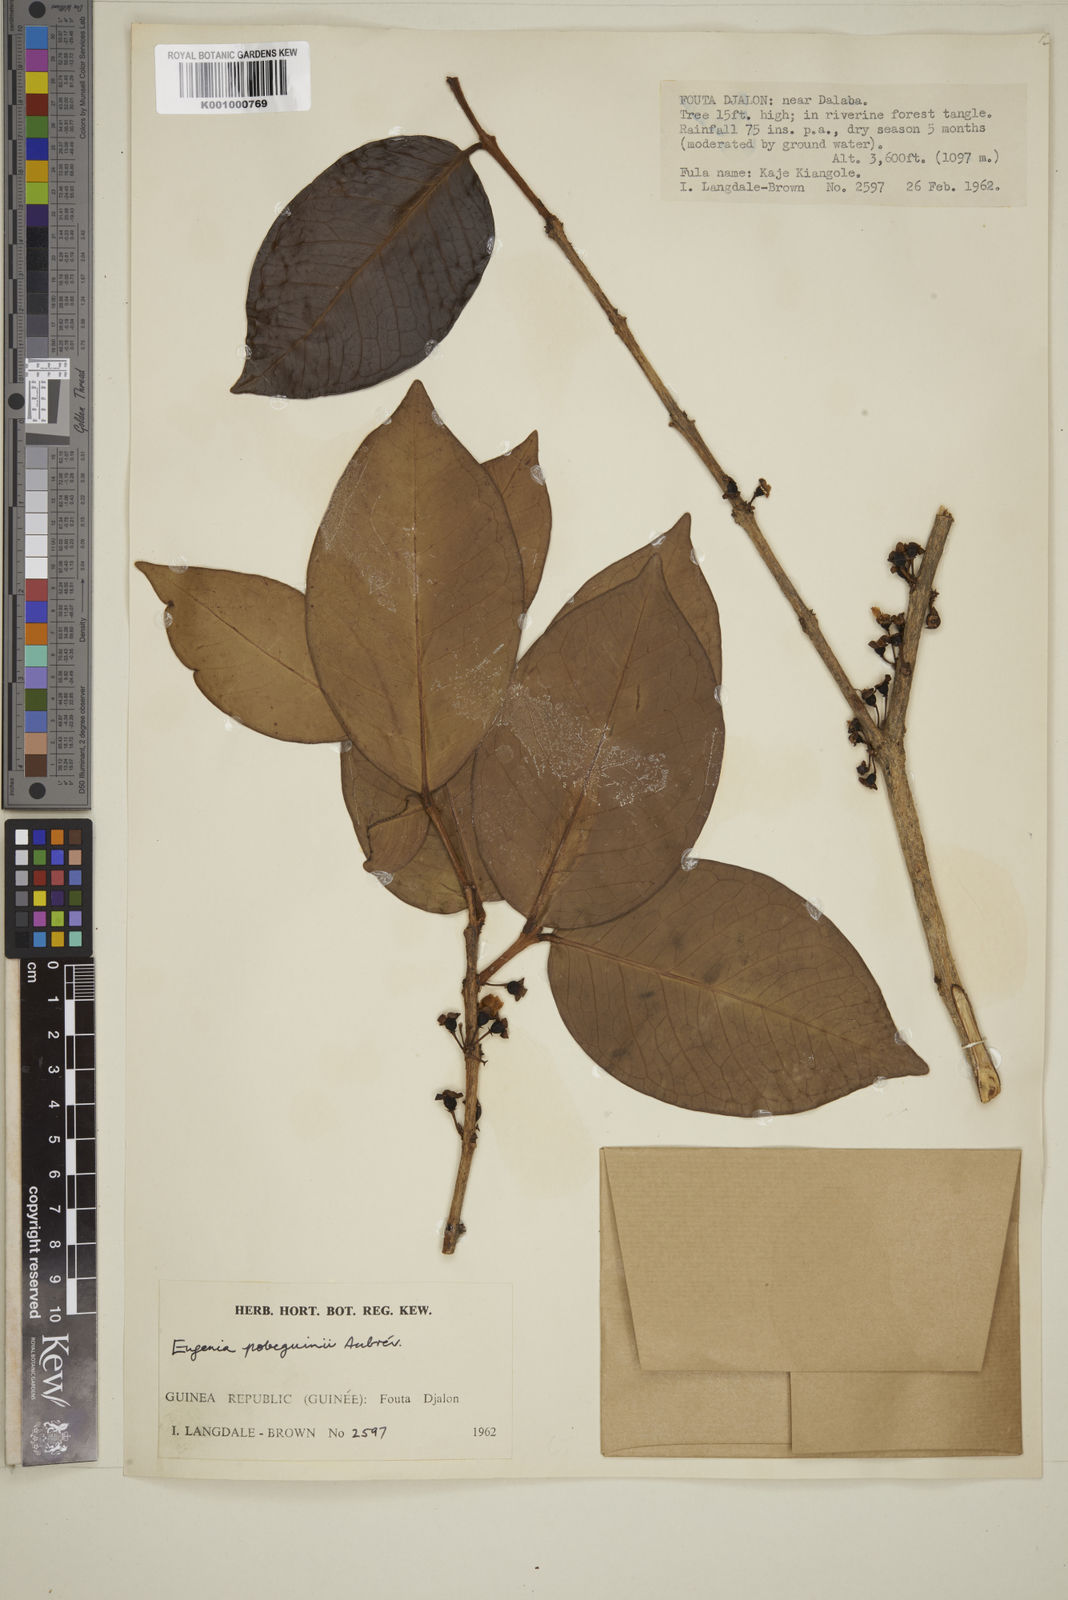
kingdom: Plantae
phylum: Tracheophyta
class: Magnoliopsida
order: Myrtales
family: Myrtaceae
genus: Eugenia
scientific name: Eugenia
